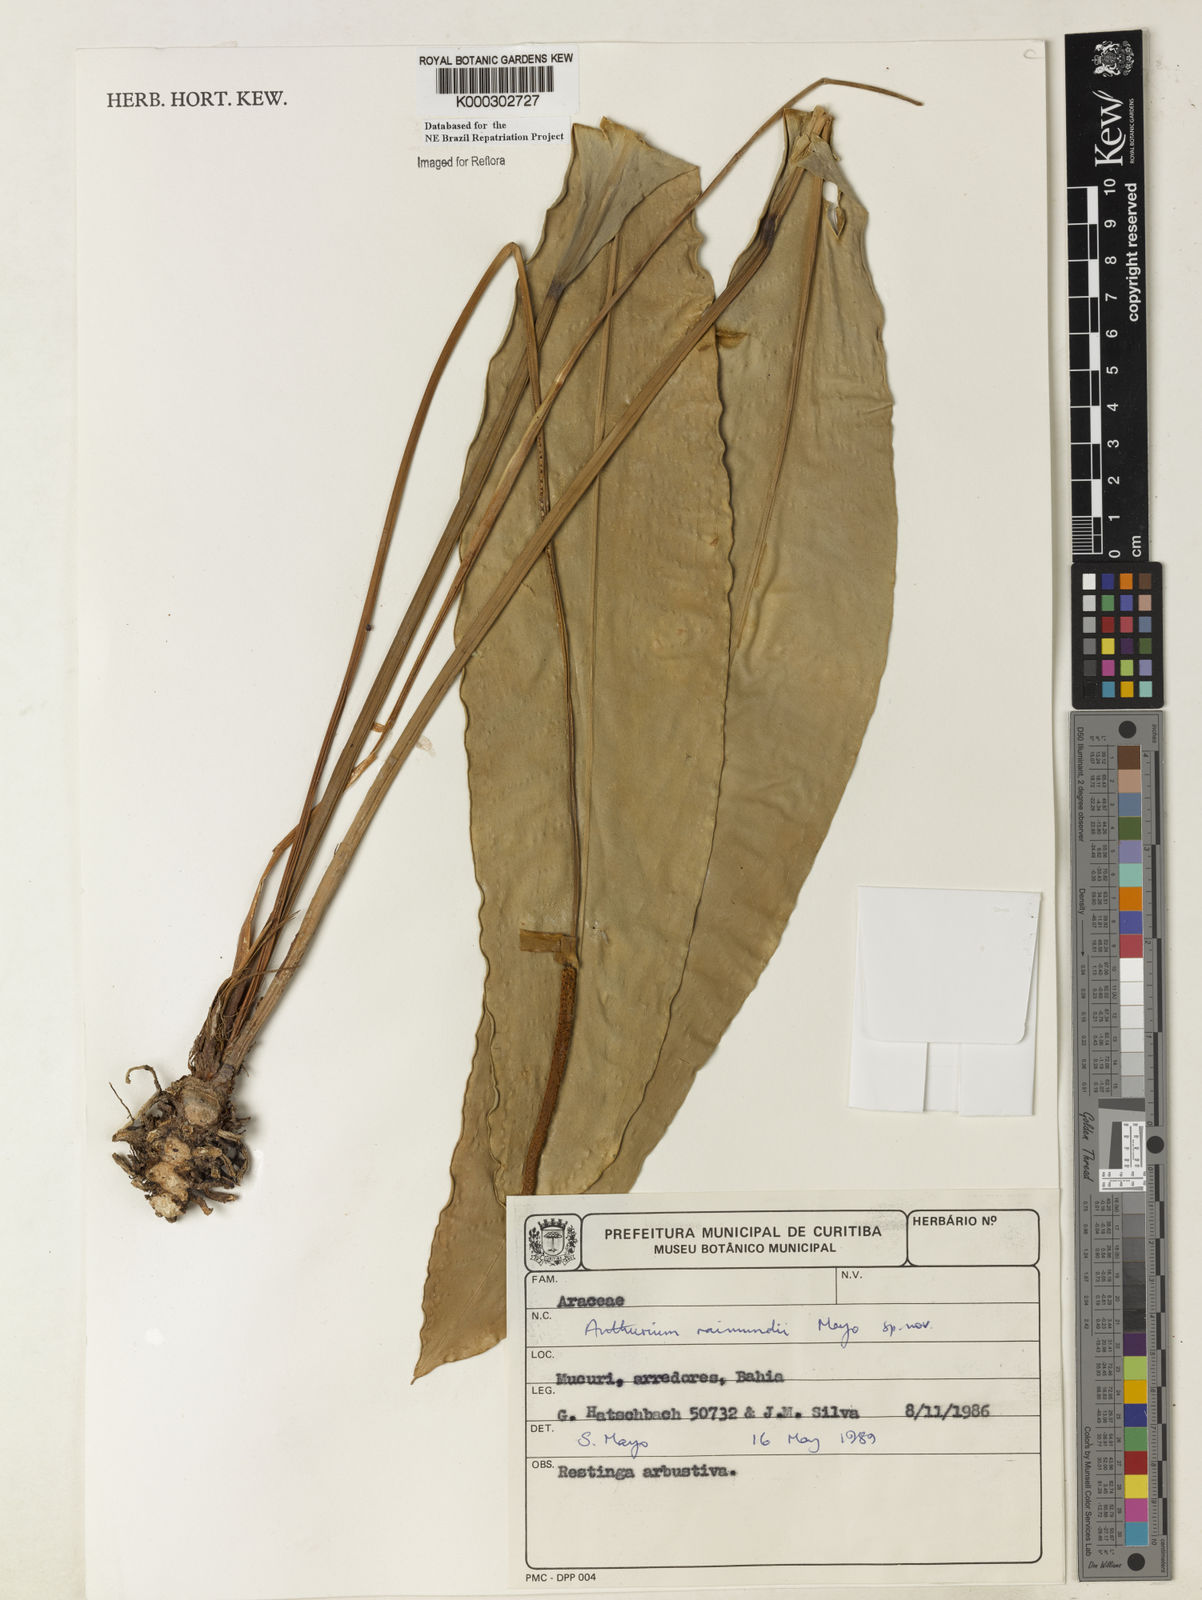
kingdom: Plantae
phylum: Tracheophyta
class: Liliopsida
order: Alismatales
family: Araceae
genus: Anthurium
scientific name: Anthurium raimundii
